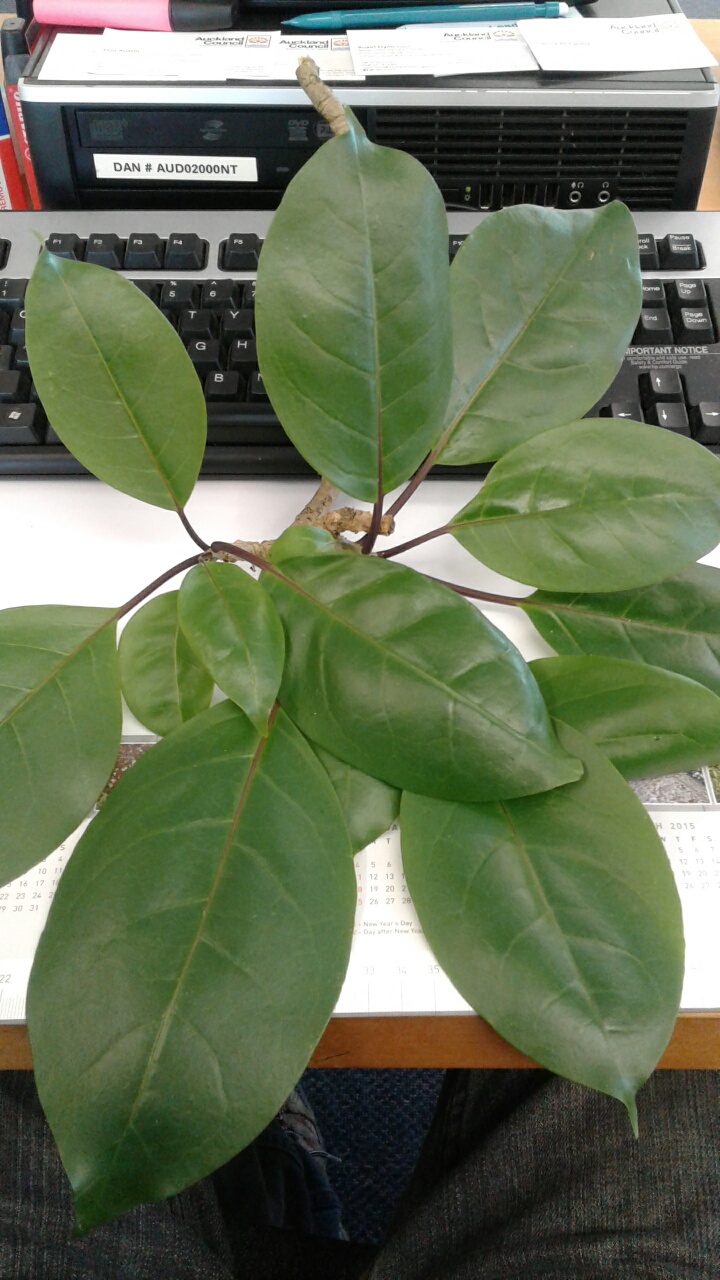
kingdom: Plantae
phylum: Tracheophyta
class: Magnoliopsida
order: Solanales
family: Solanaceae
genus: Solandra
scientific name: Solandra maxima
